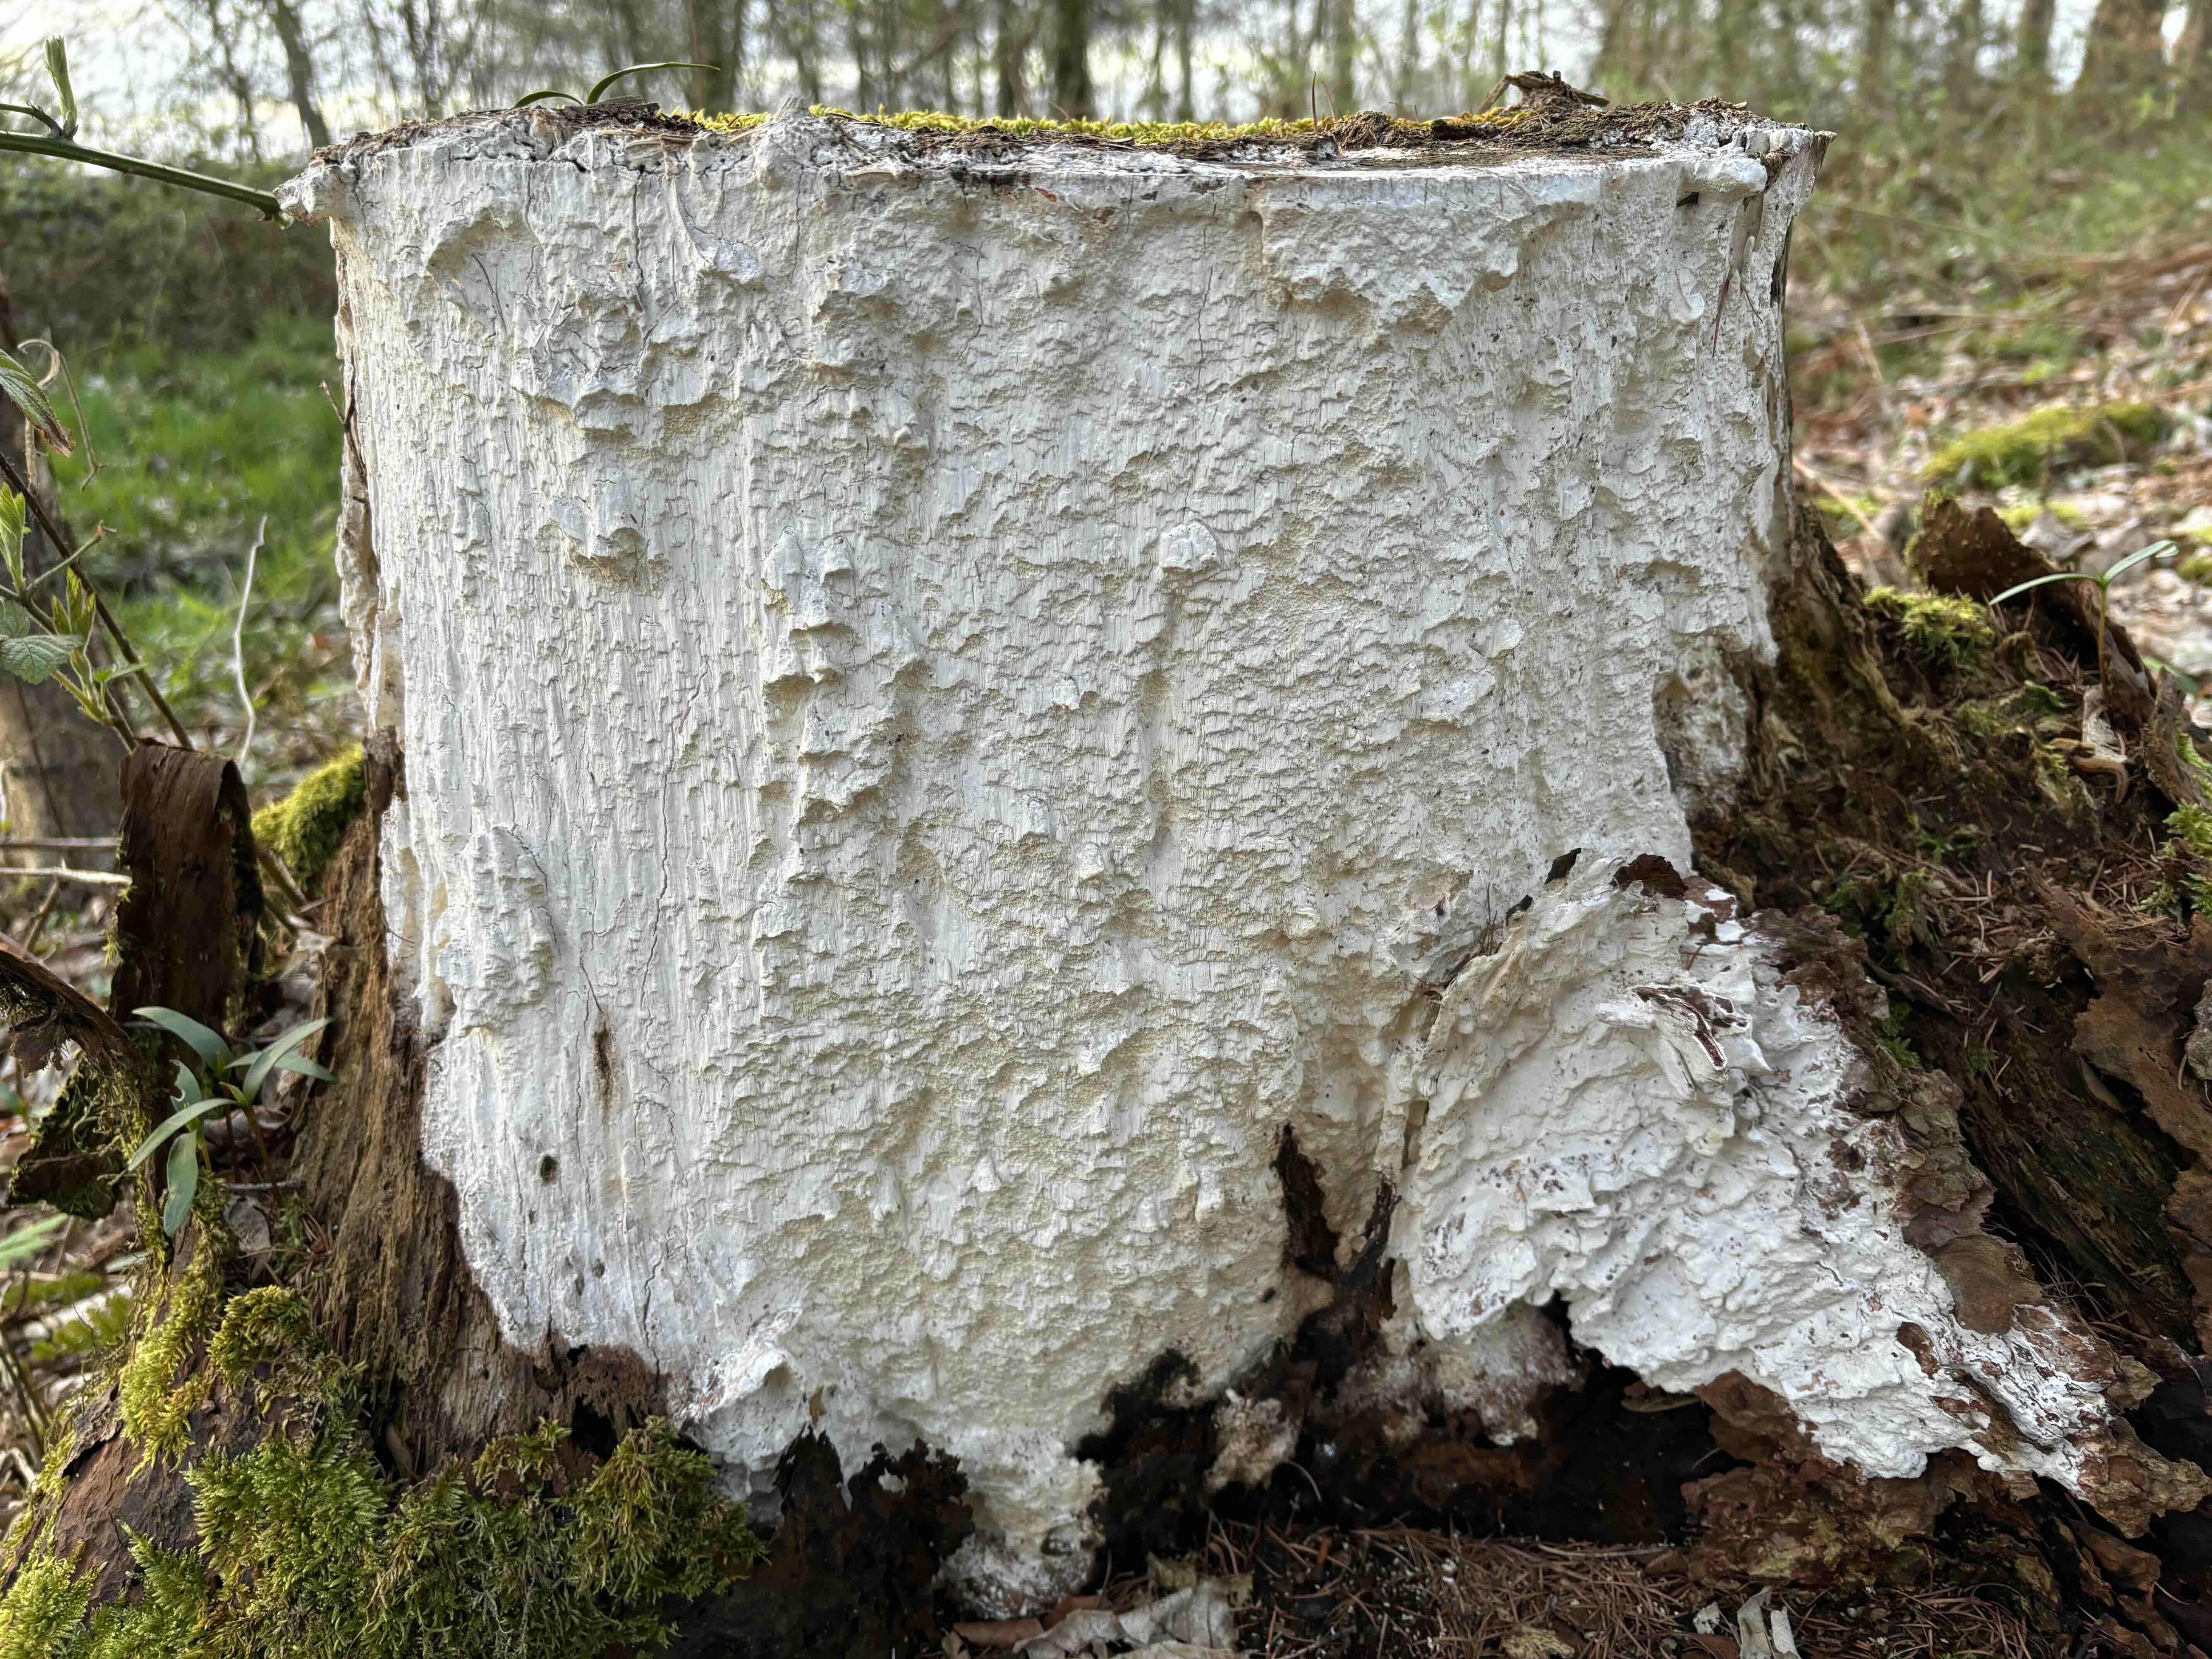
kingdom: Fungi
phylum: Basidiomycota
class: Agaricomycetes
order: Polyporales
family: Fomitopsidaceae
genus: Daedalea
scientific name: Daedalea xantha
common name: gul sejporesvamp
